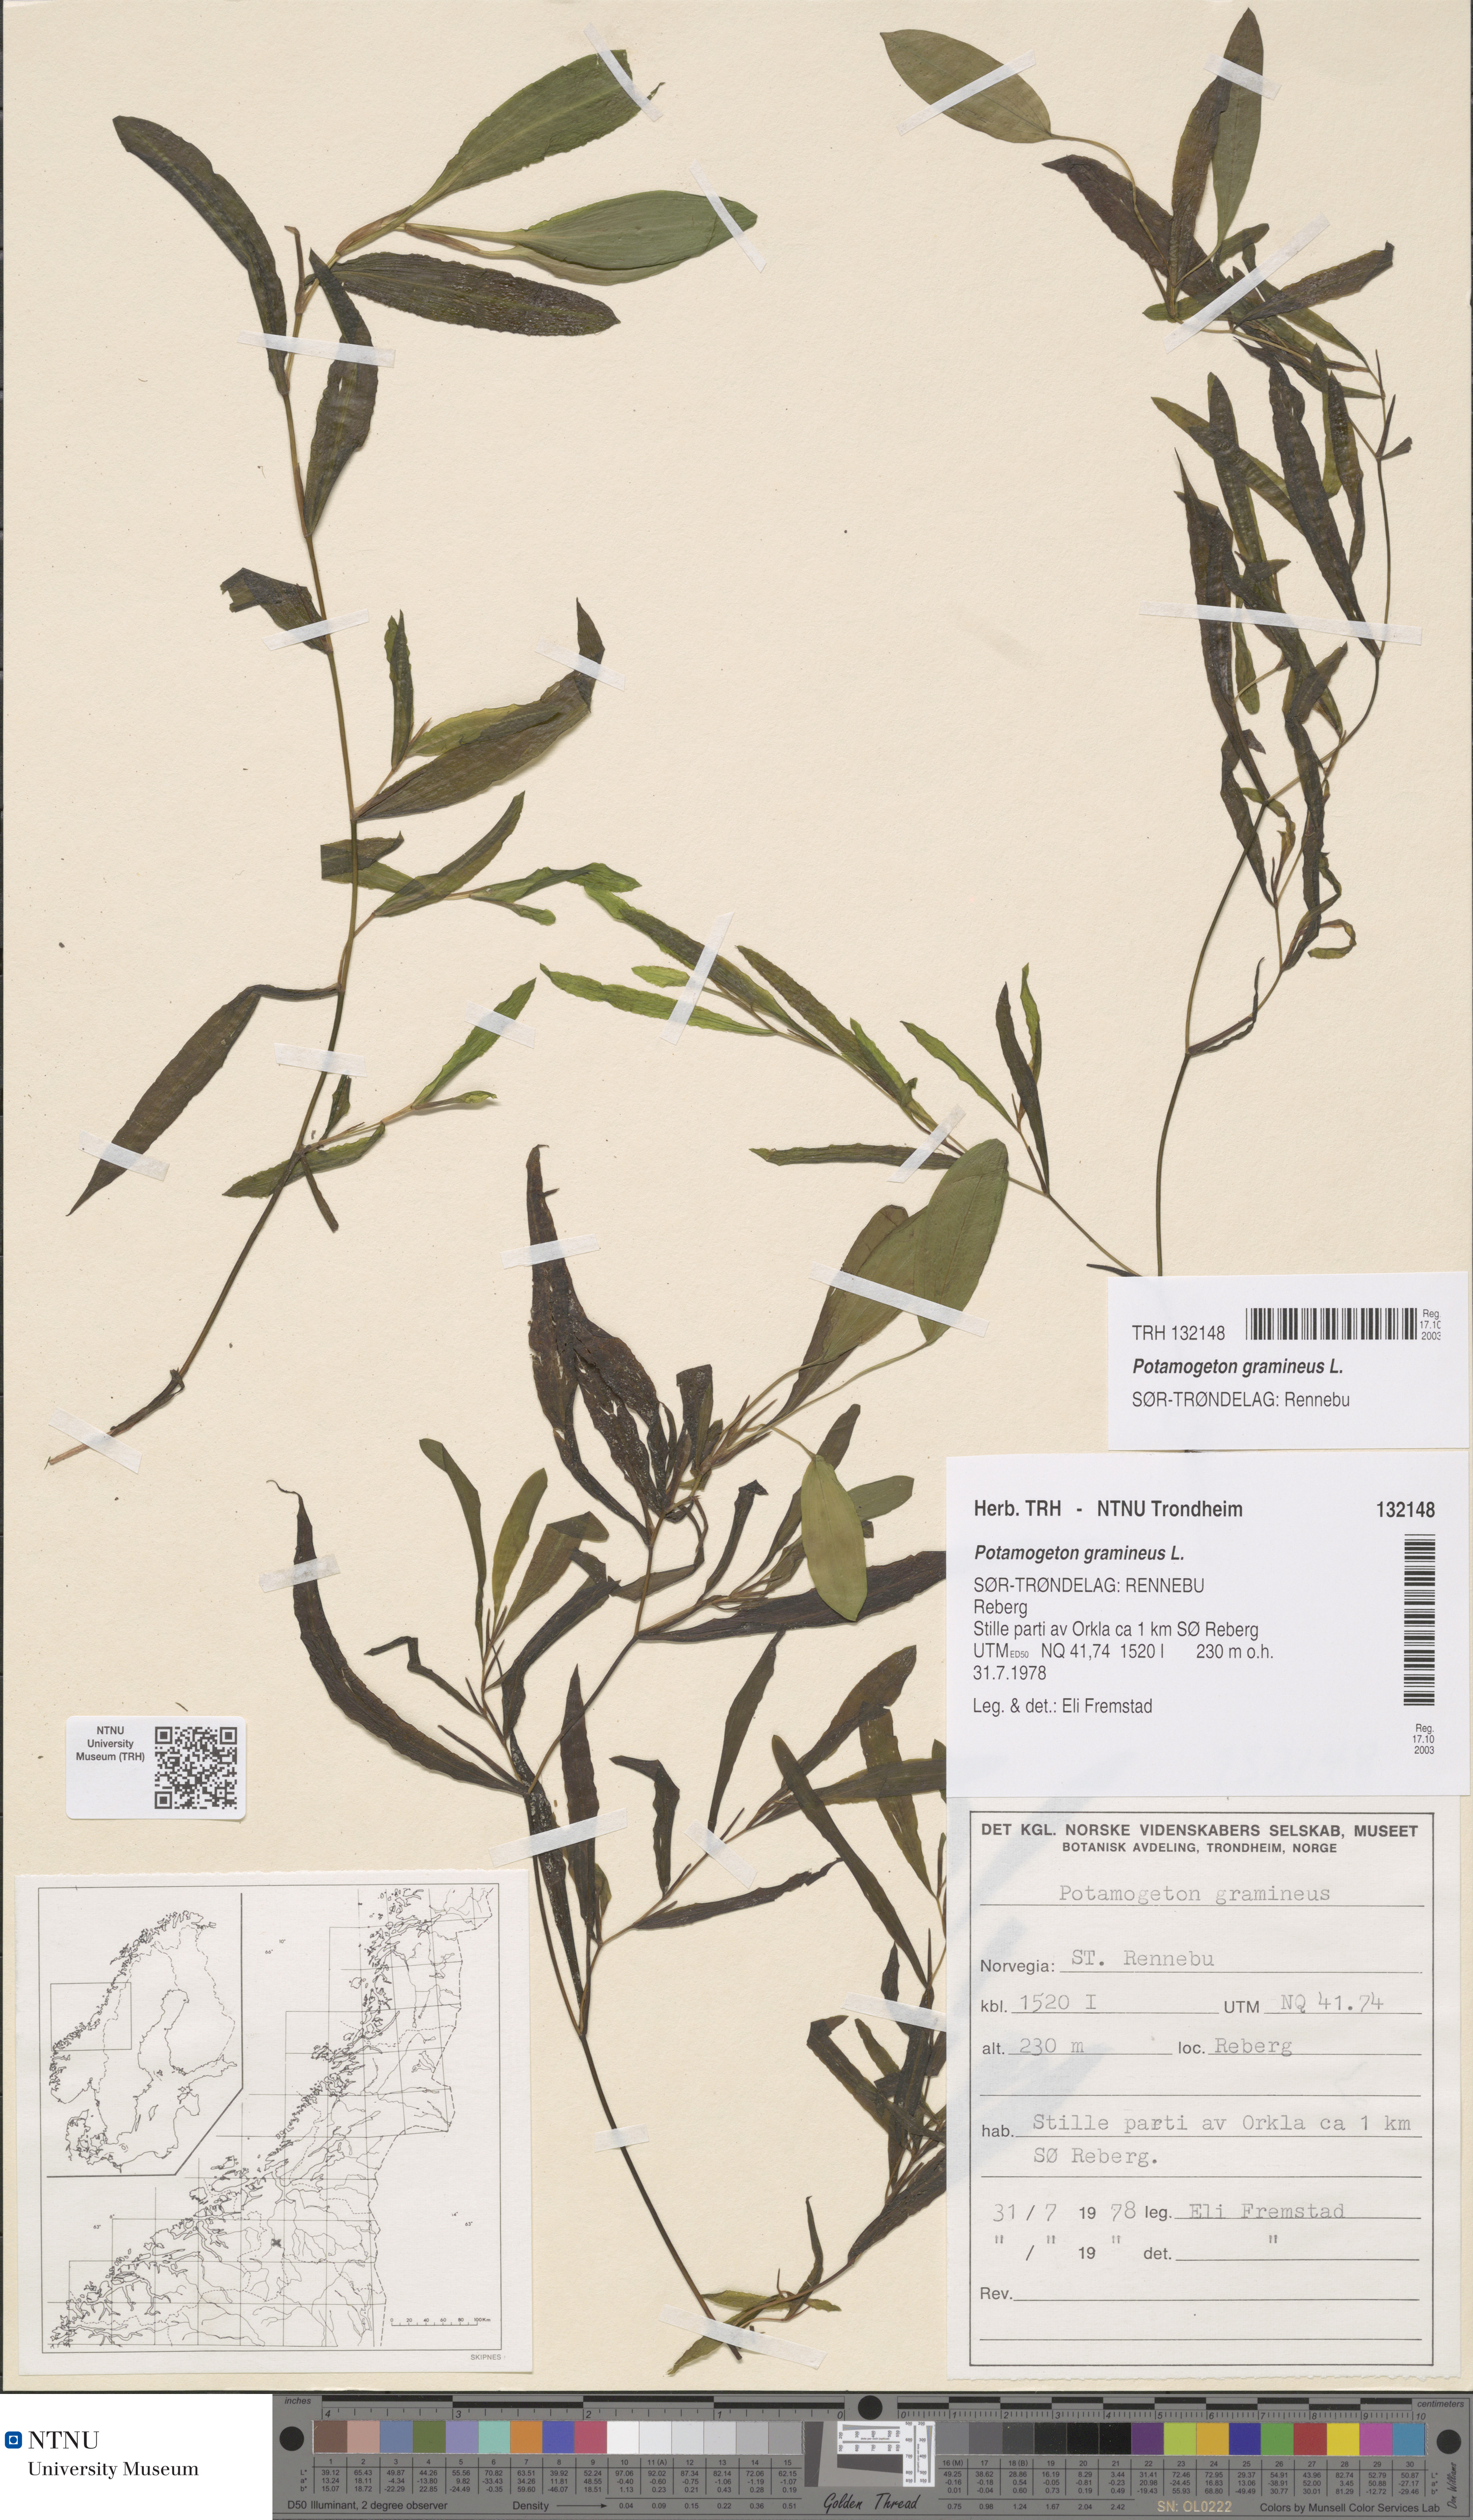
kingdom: Plantae
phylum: Tracheophyta
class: Liliopsida
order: Alismatales
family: Potamogetonaceae
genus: Potamogeton
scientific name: Potamogeton gramineus
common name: Various-leaved pondweed
